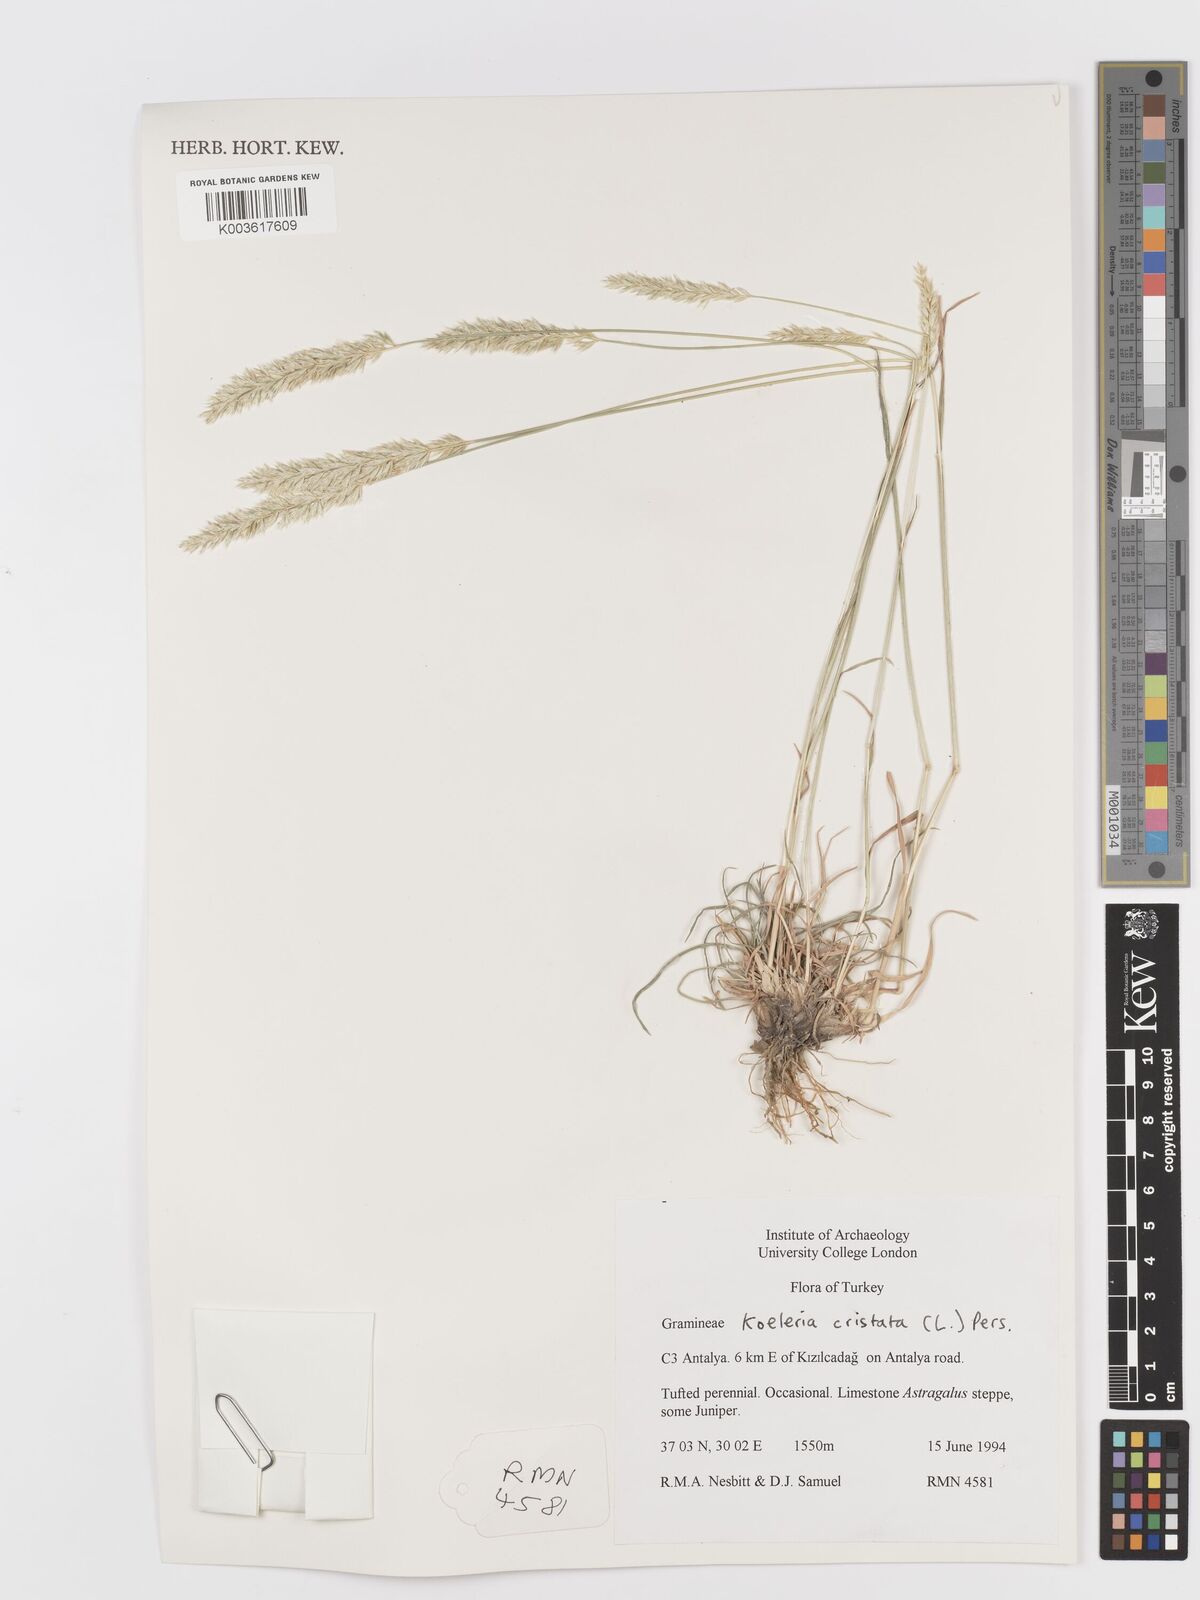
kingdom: Plantae
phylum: Tracheophyta
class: Liliopsida
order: Poales
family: Poaceae
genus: Koeleria
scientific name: Koeleria macrantha
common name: Crested hair-grass
